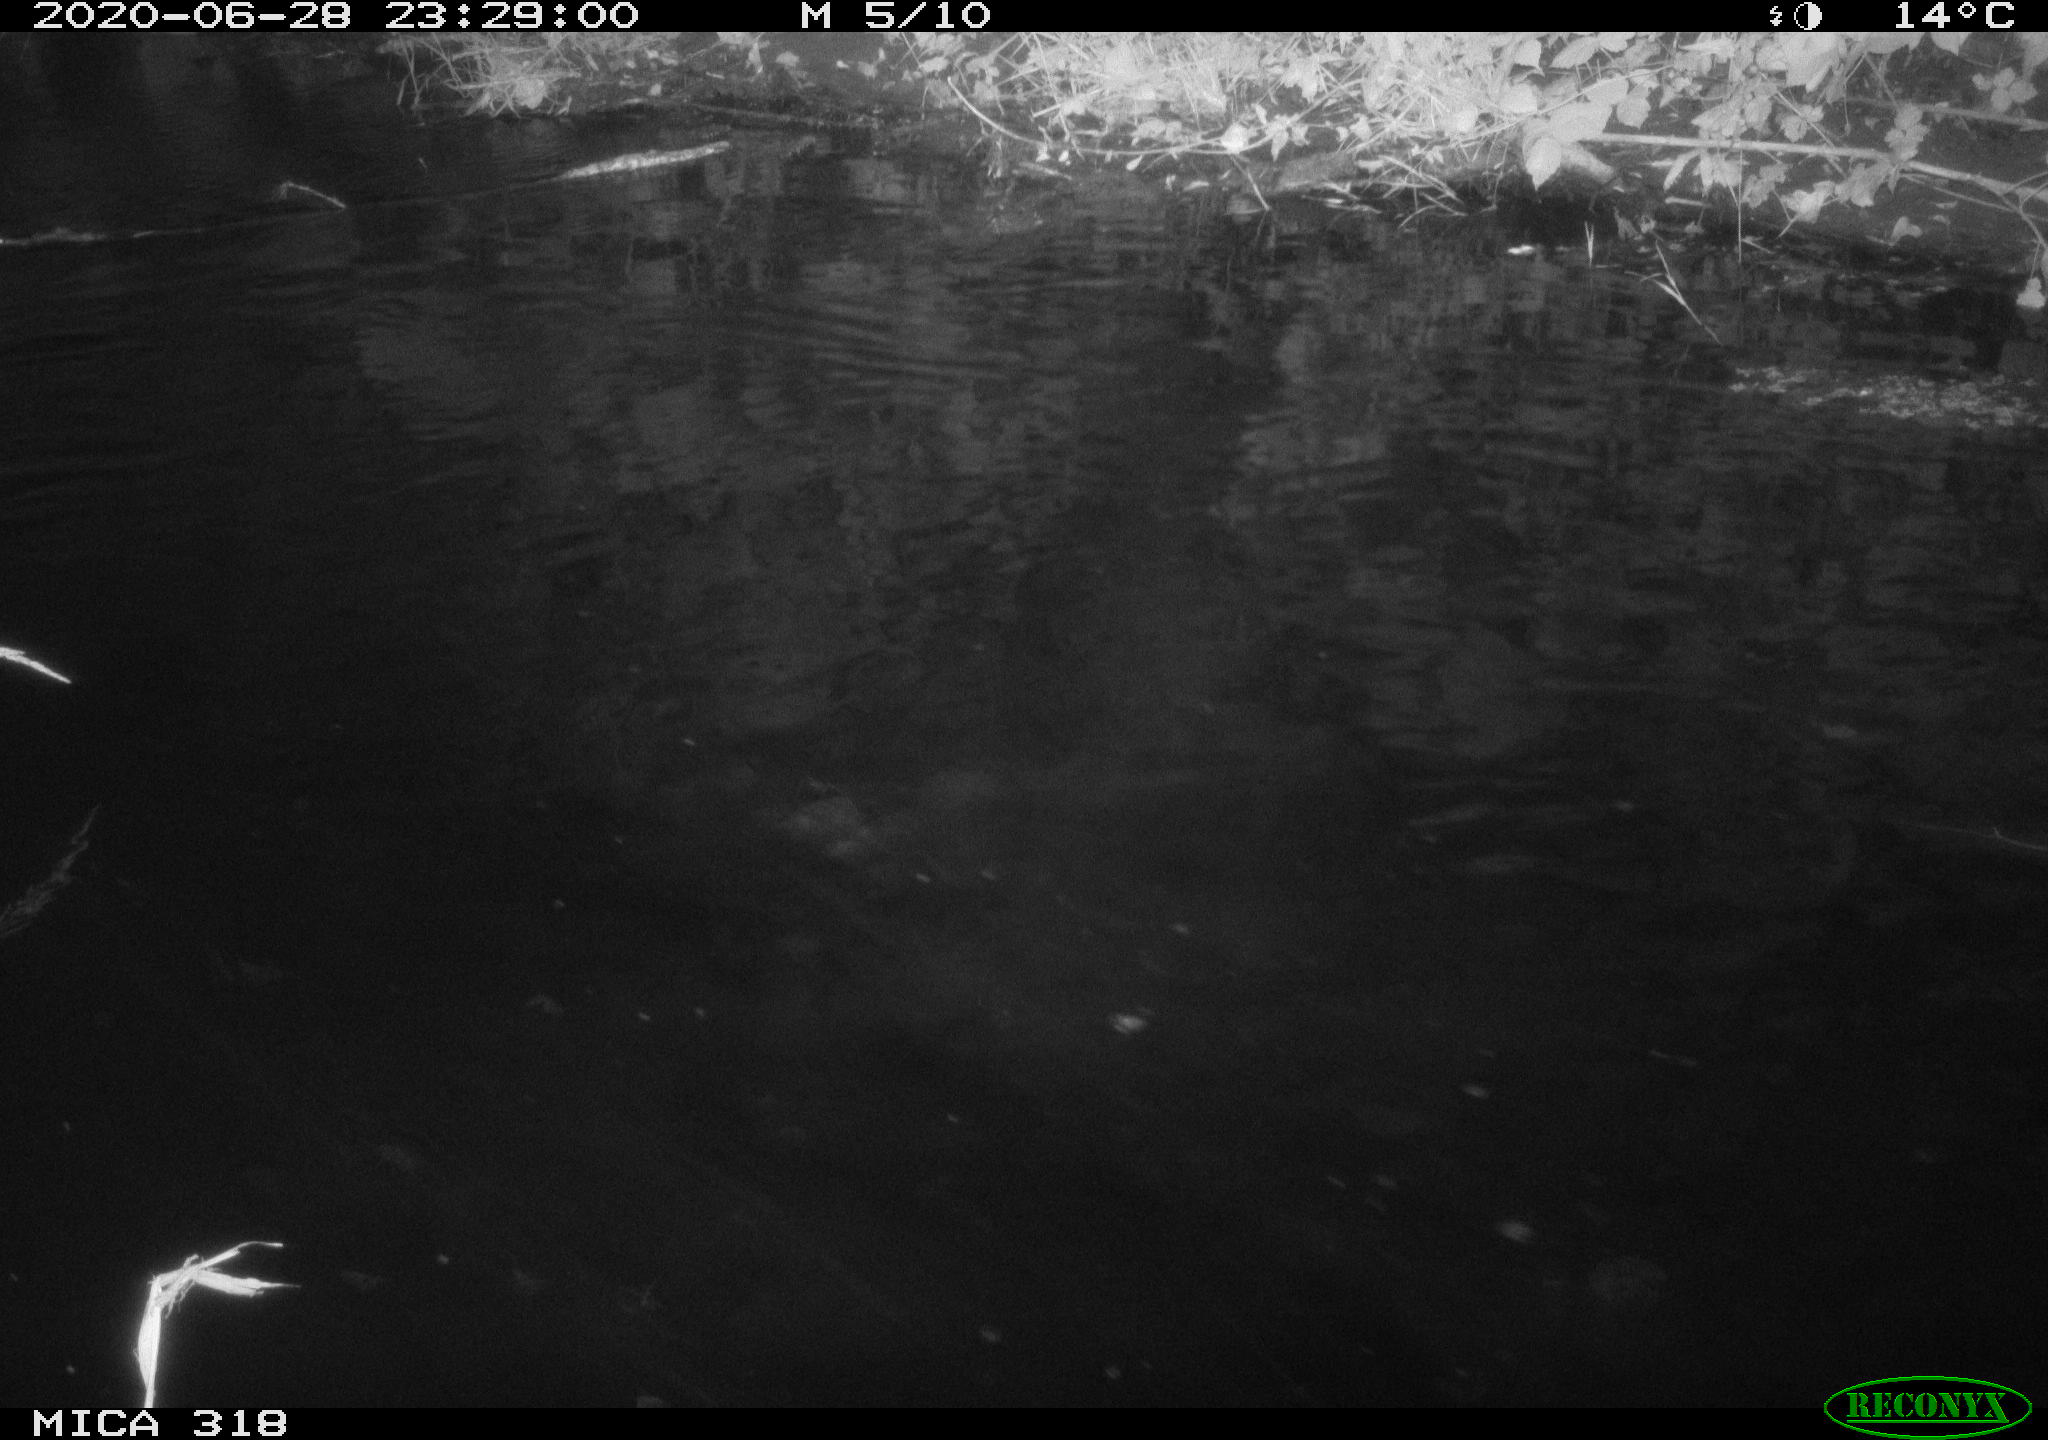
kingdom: Animalia
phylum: Chordata
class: Aves
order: Anseriformes
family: Anatidae
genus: Anas
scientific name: Anas platyrhynchos
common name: Mallard
